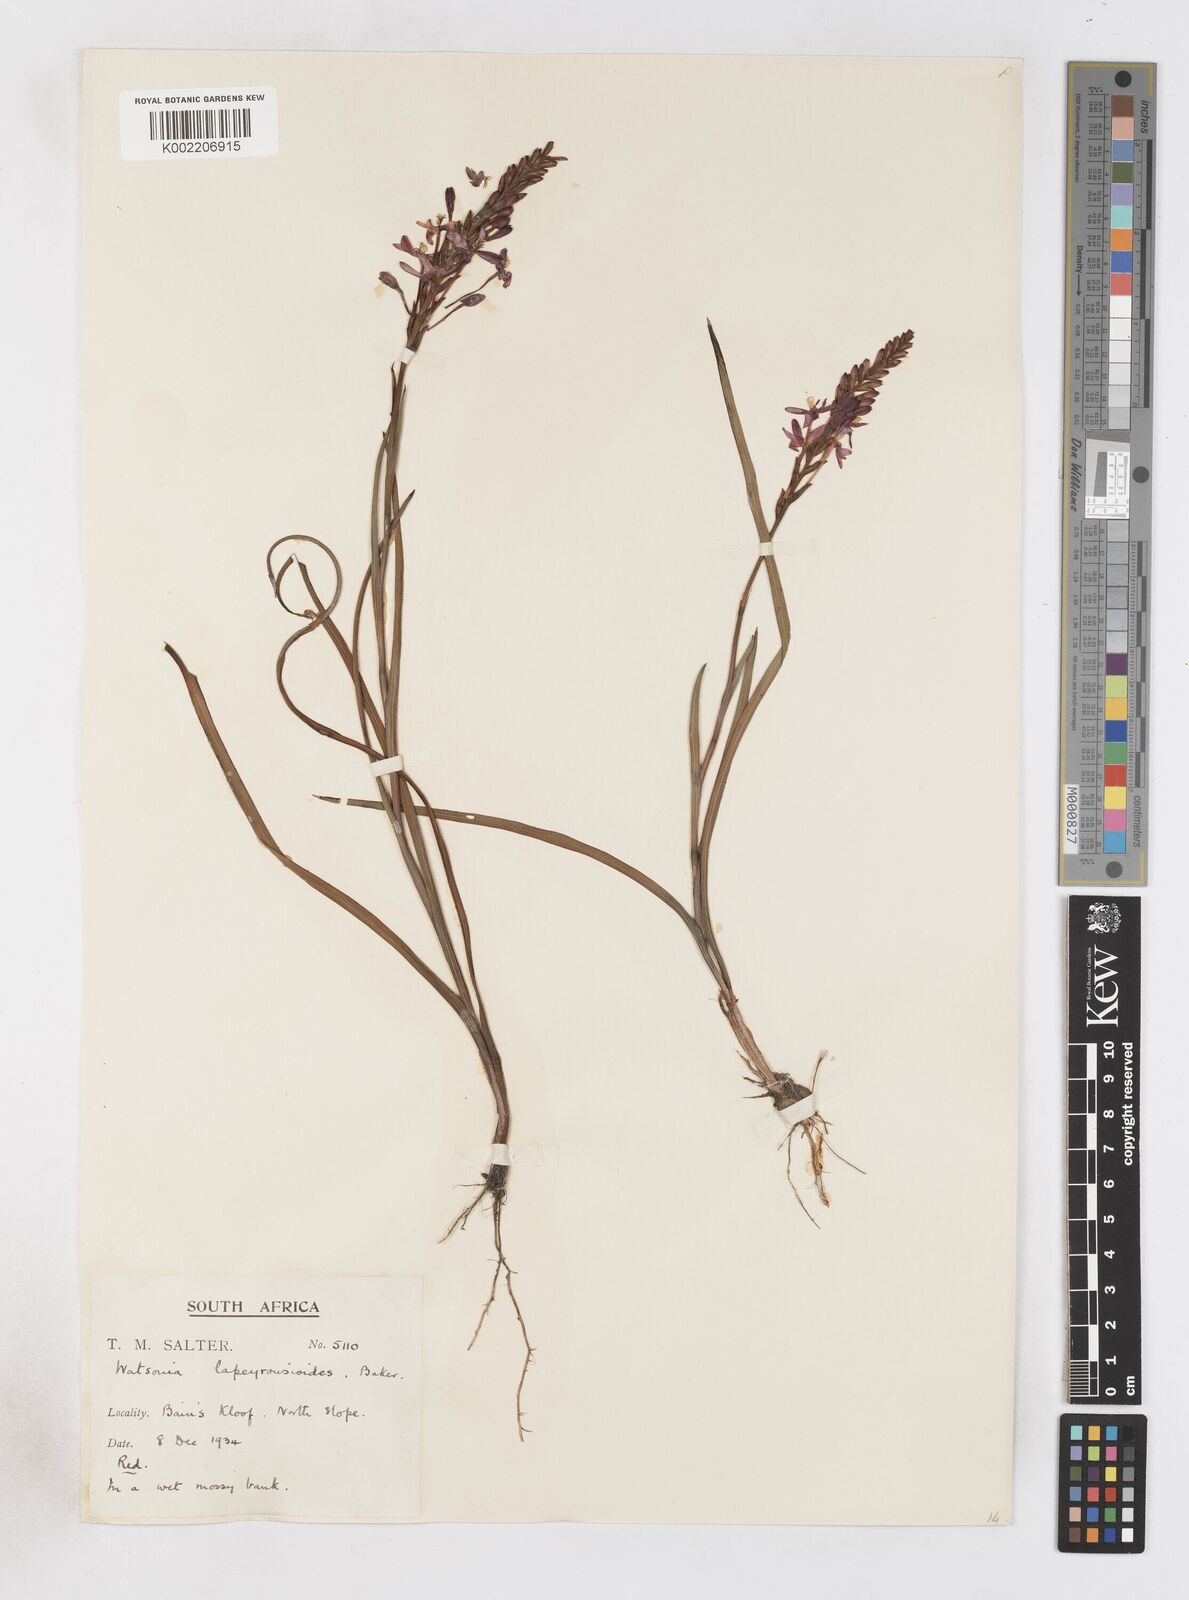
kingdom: Plantae
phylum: Tracheophyta
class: Liliopsida
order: Asparagales
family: Iridaceae
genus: Micranthus
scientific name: Micranthus
